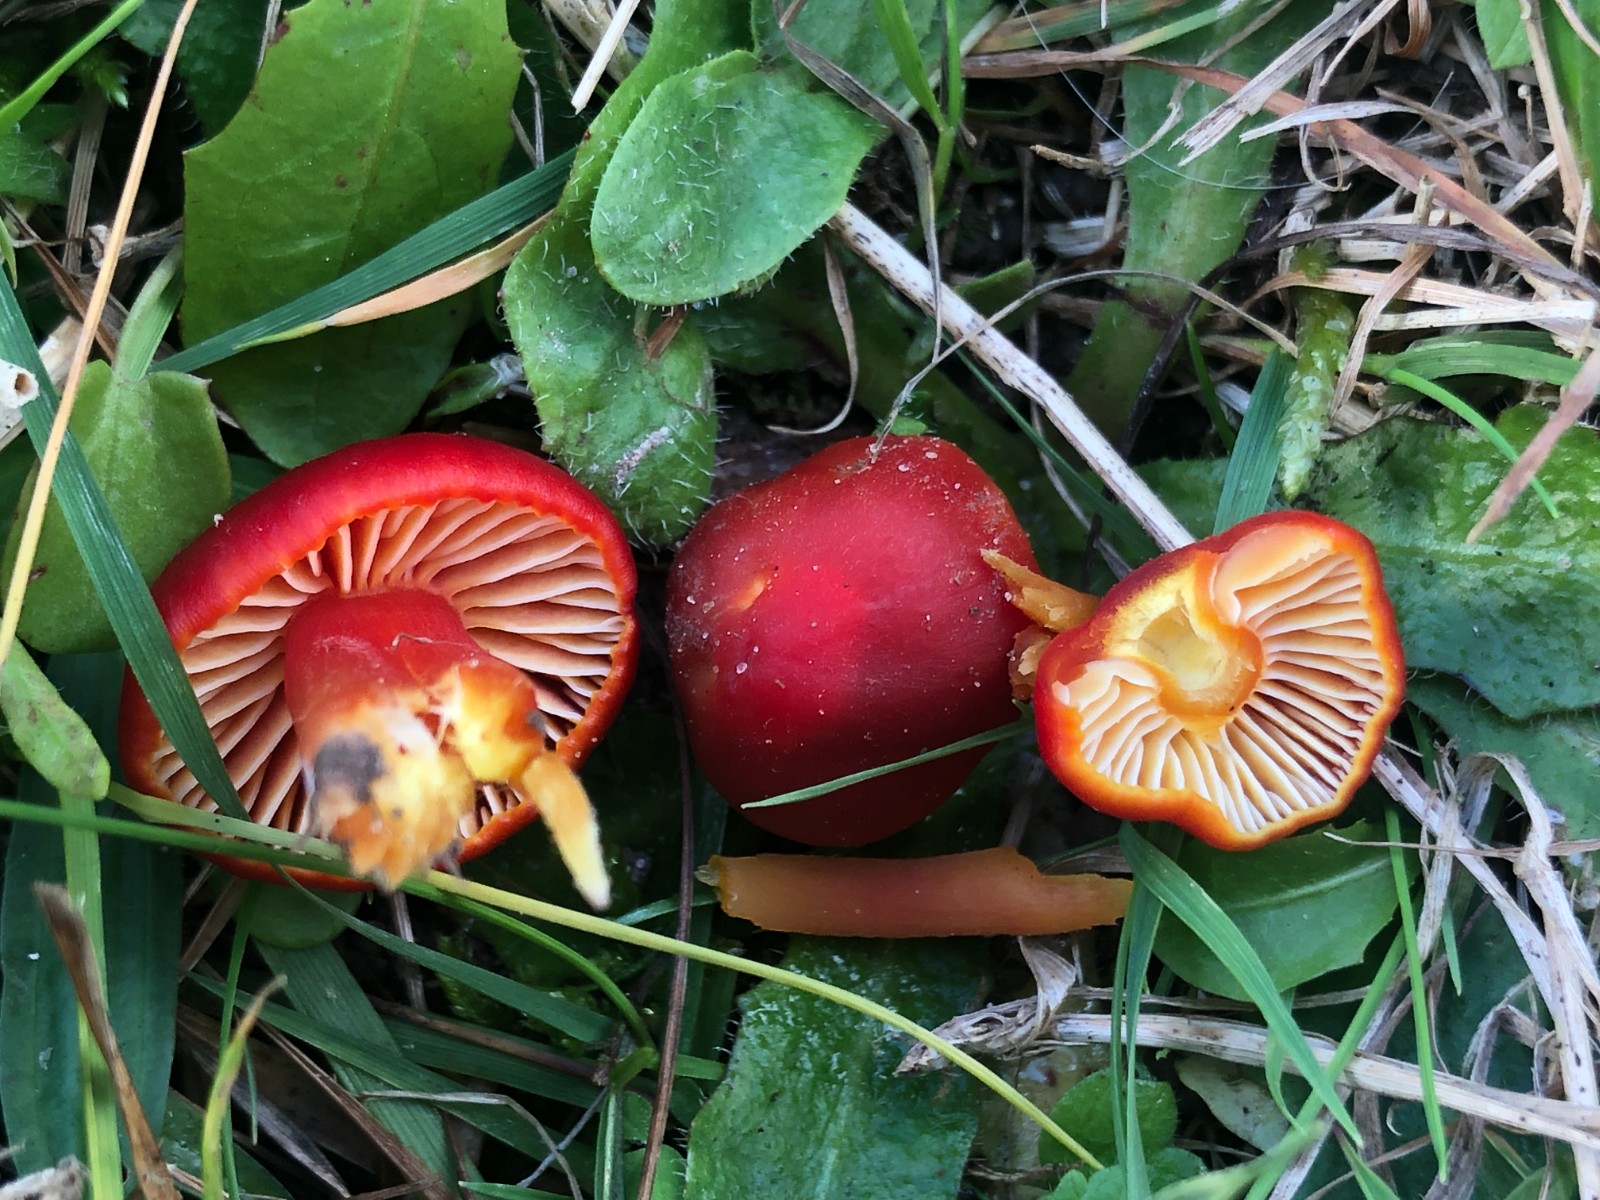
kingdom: Fungi
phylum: Basidiomycota
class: Agaricomycetes
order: Agaricales
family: Hygrophoraceae
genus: Hygrocybe
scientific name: Hygrocybe coccinea
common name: cinnober-vokshat
